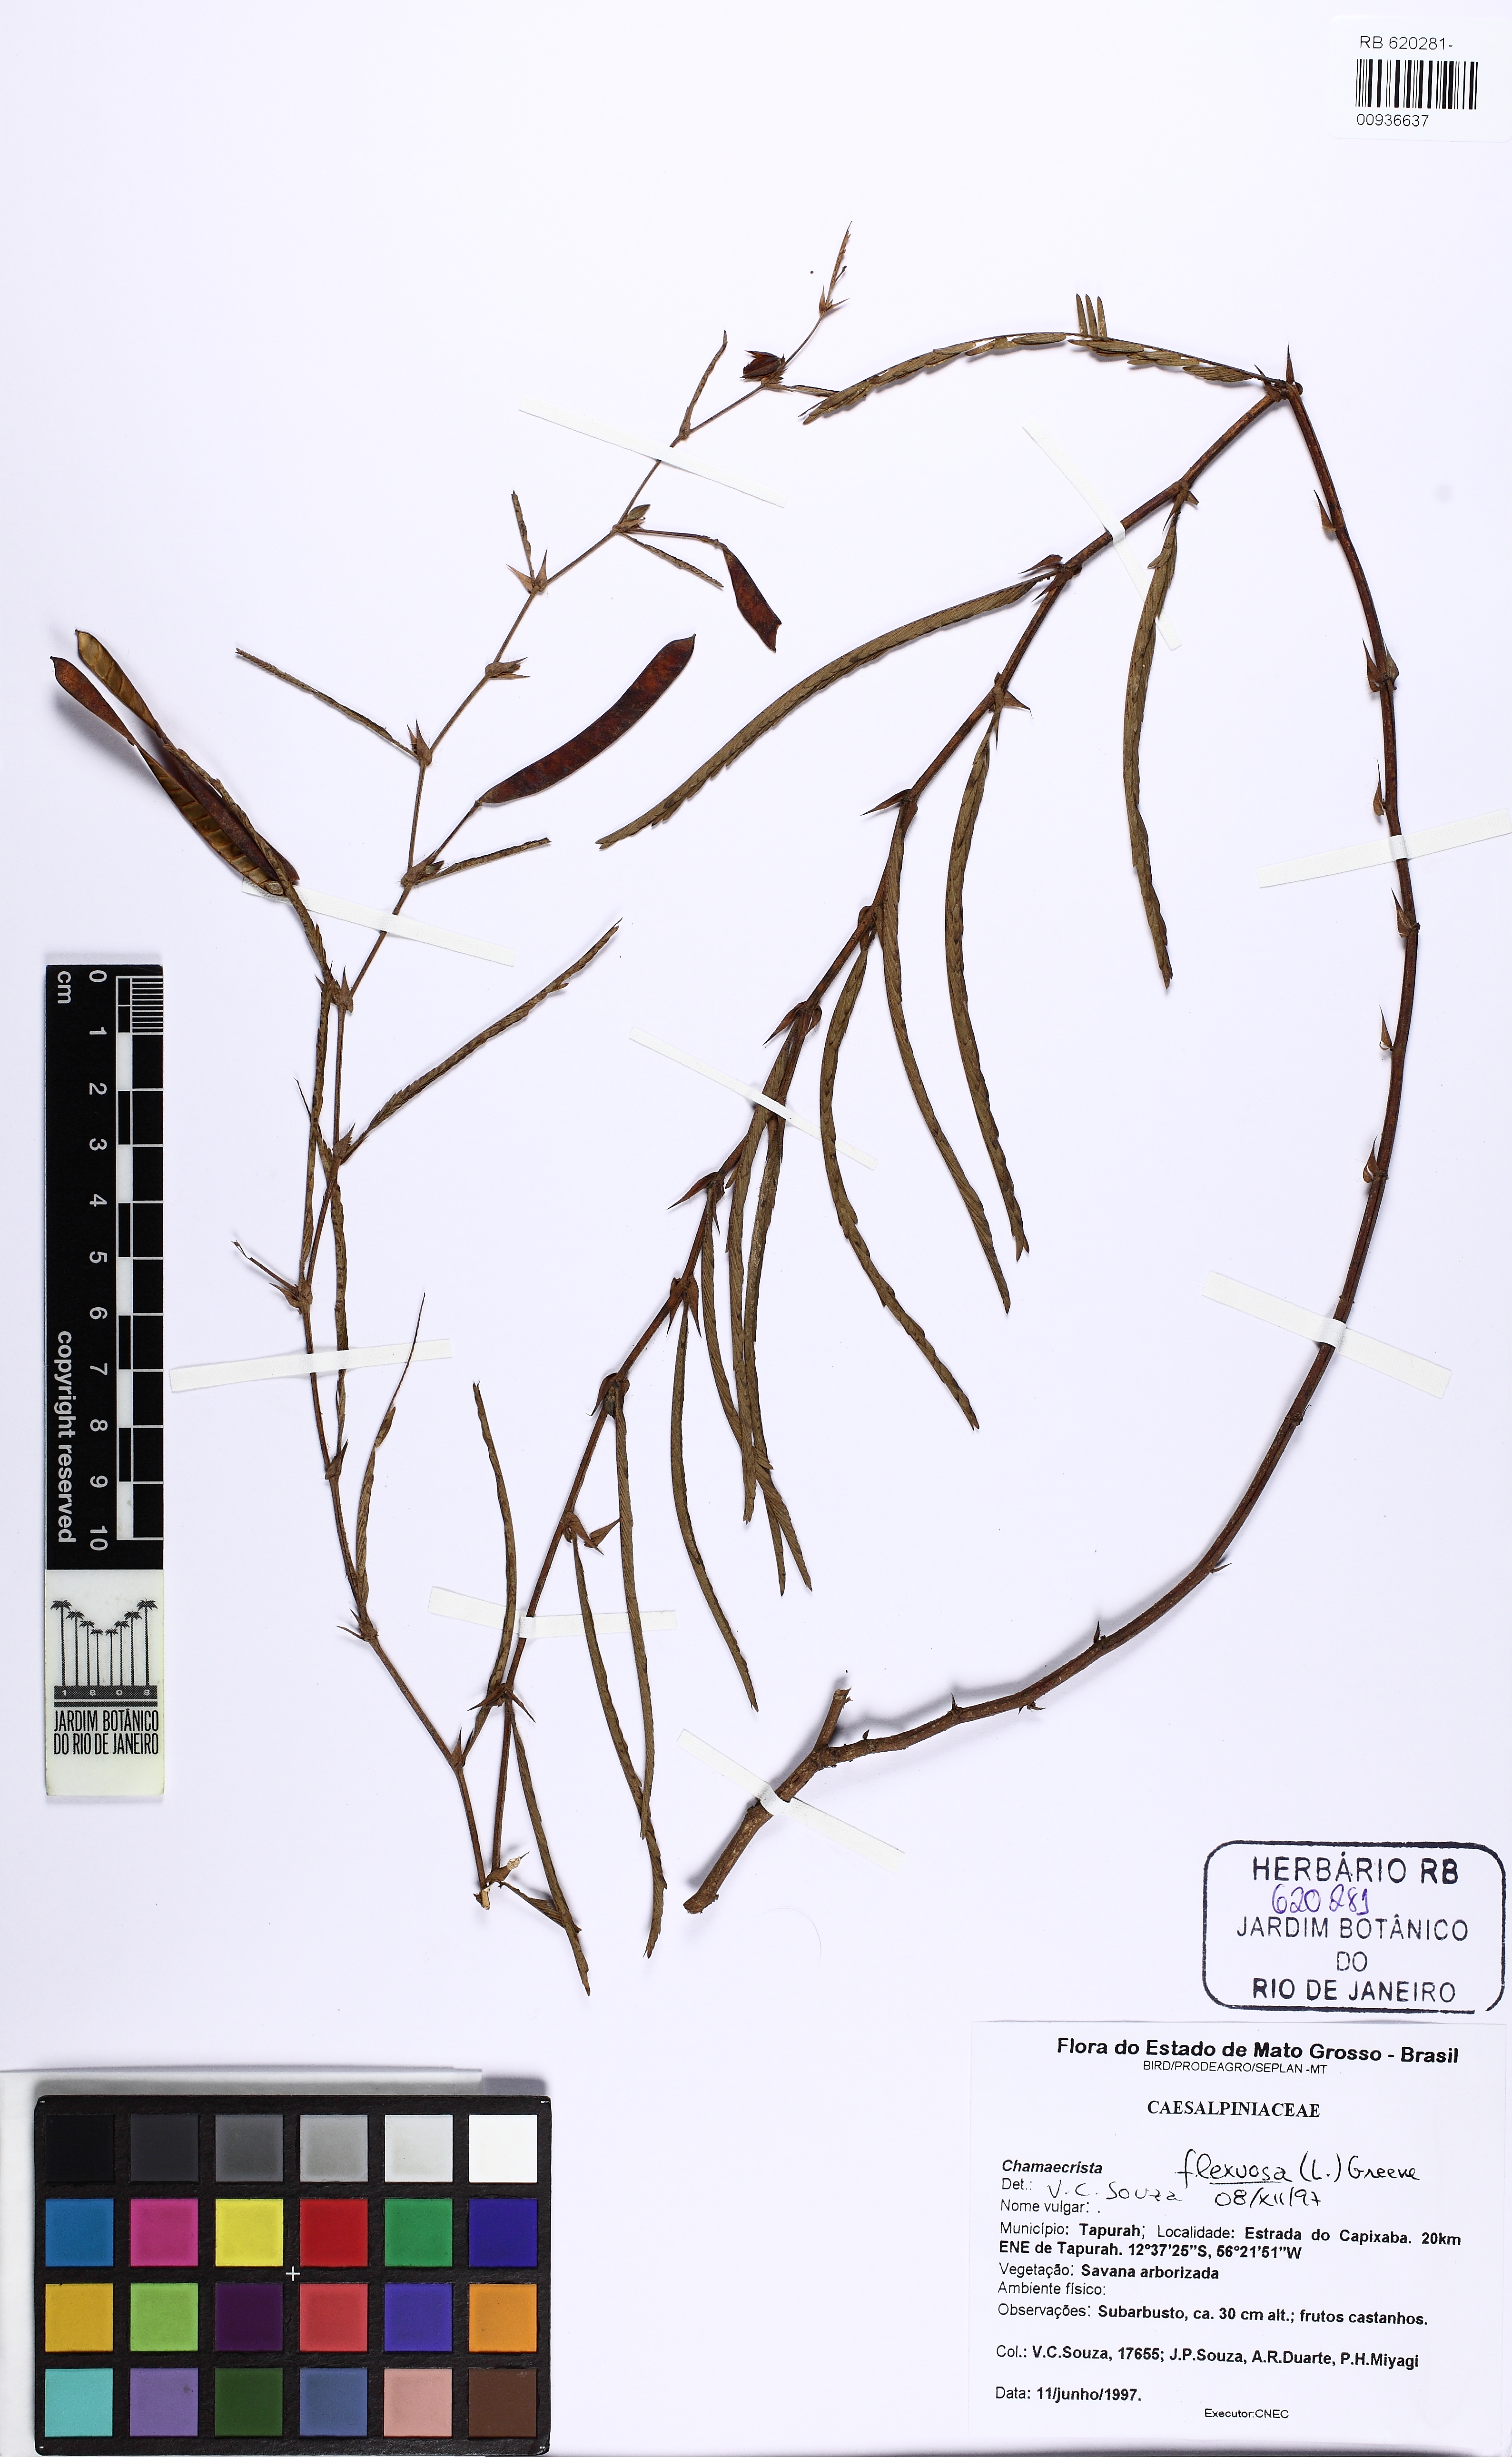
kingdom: Plantae
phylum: Tracheophyta
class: Magnoliopsida
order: Fabales
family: Fabaceae
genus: Chamaecrista
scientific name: Chamaecrista flexuosa
